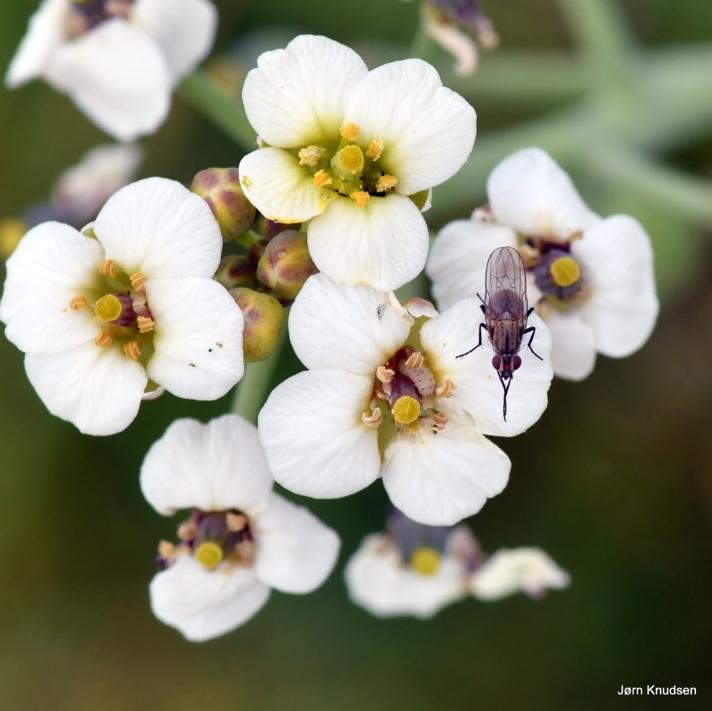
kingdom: Plantae
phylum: Tracheophyta
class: Magnoliopsida
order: Brassicales
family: Brassicaceae
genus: Crambe
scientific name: Crambe maritima
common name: Strandkål
